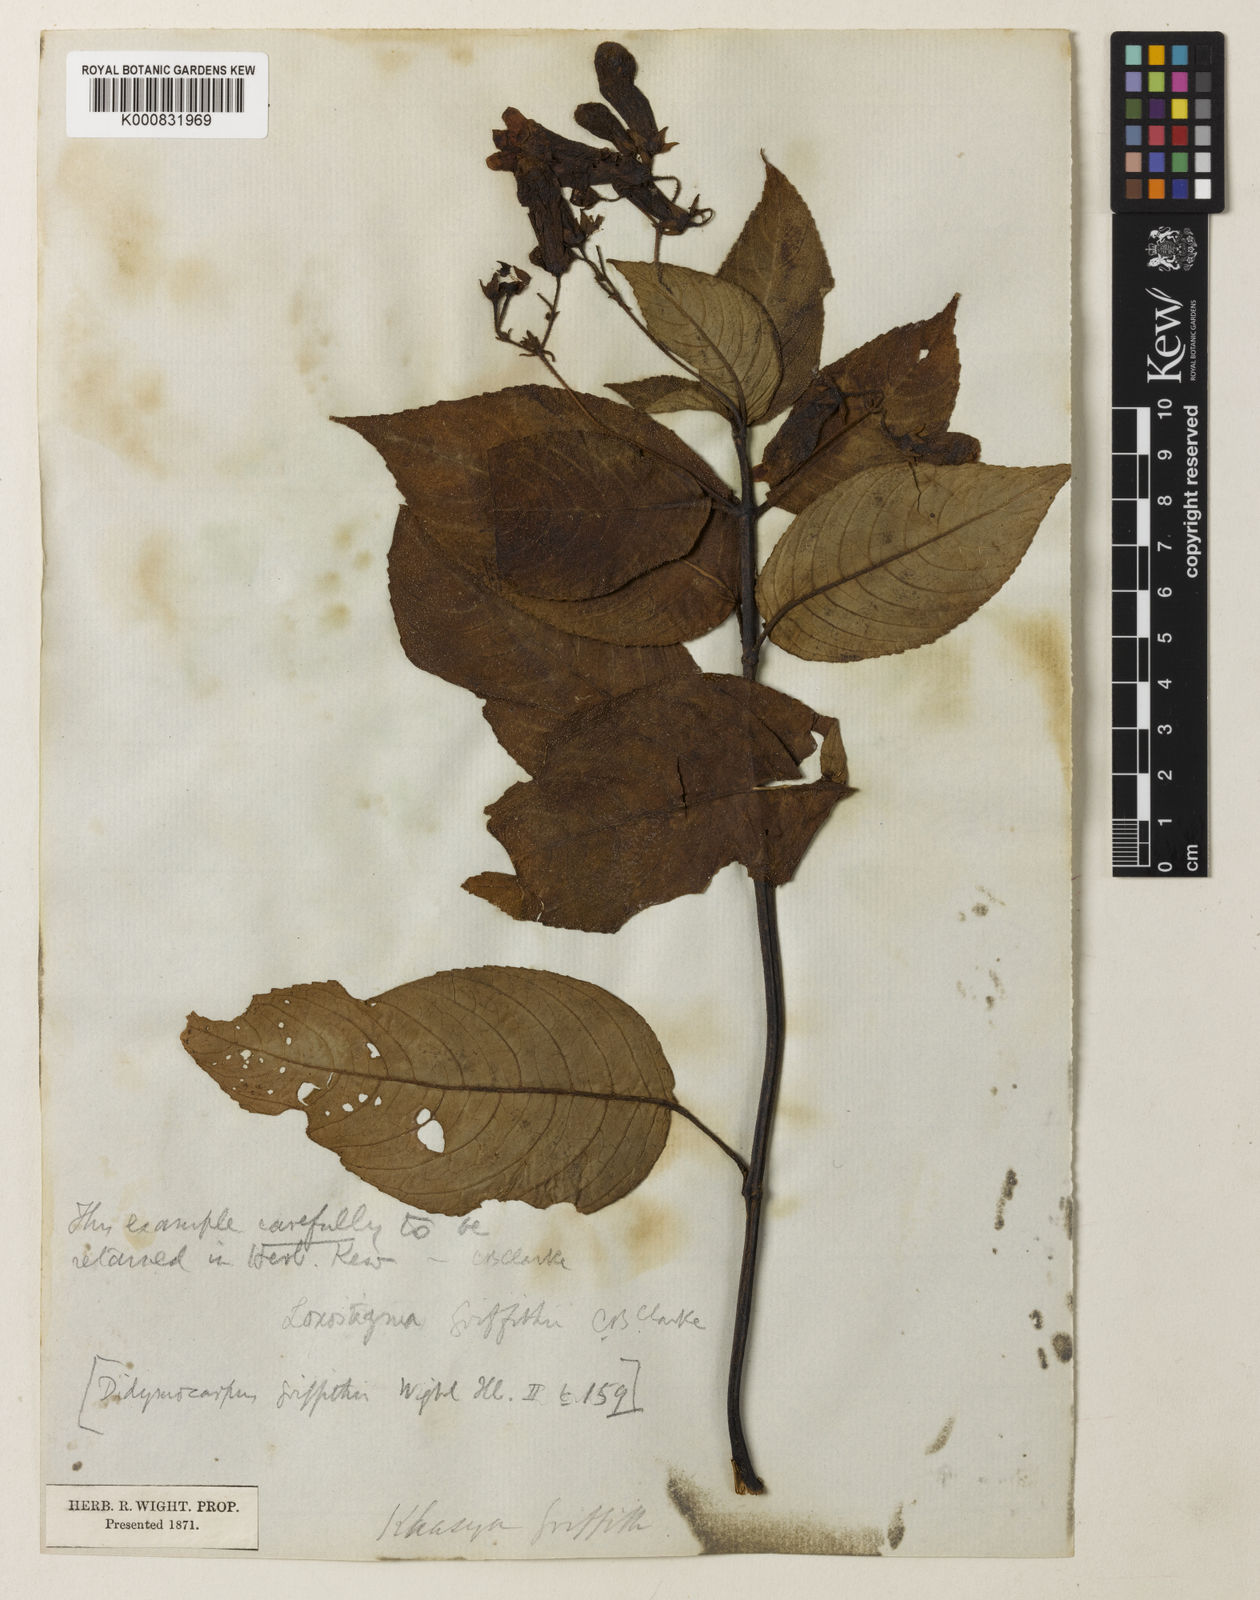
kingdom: Plantae
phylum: Tracheophyta
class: Magnoliopsida
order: Lamiales
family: Gesneriaceae
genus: Loxostigma
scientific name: Loxostigma griffithii
